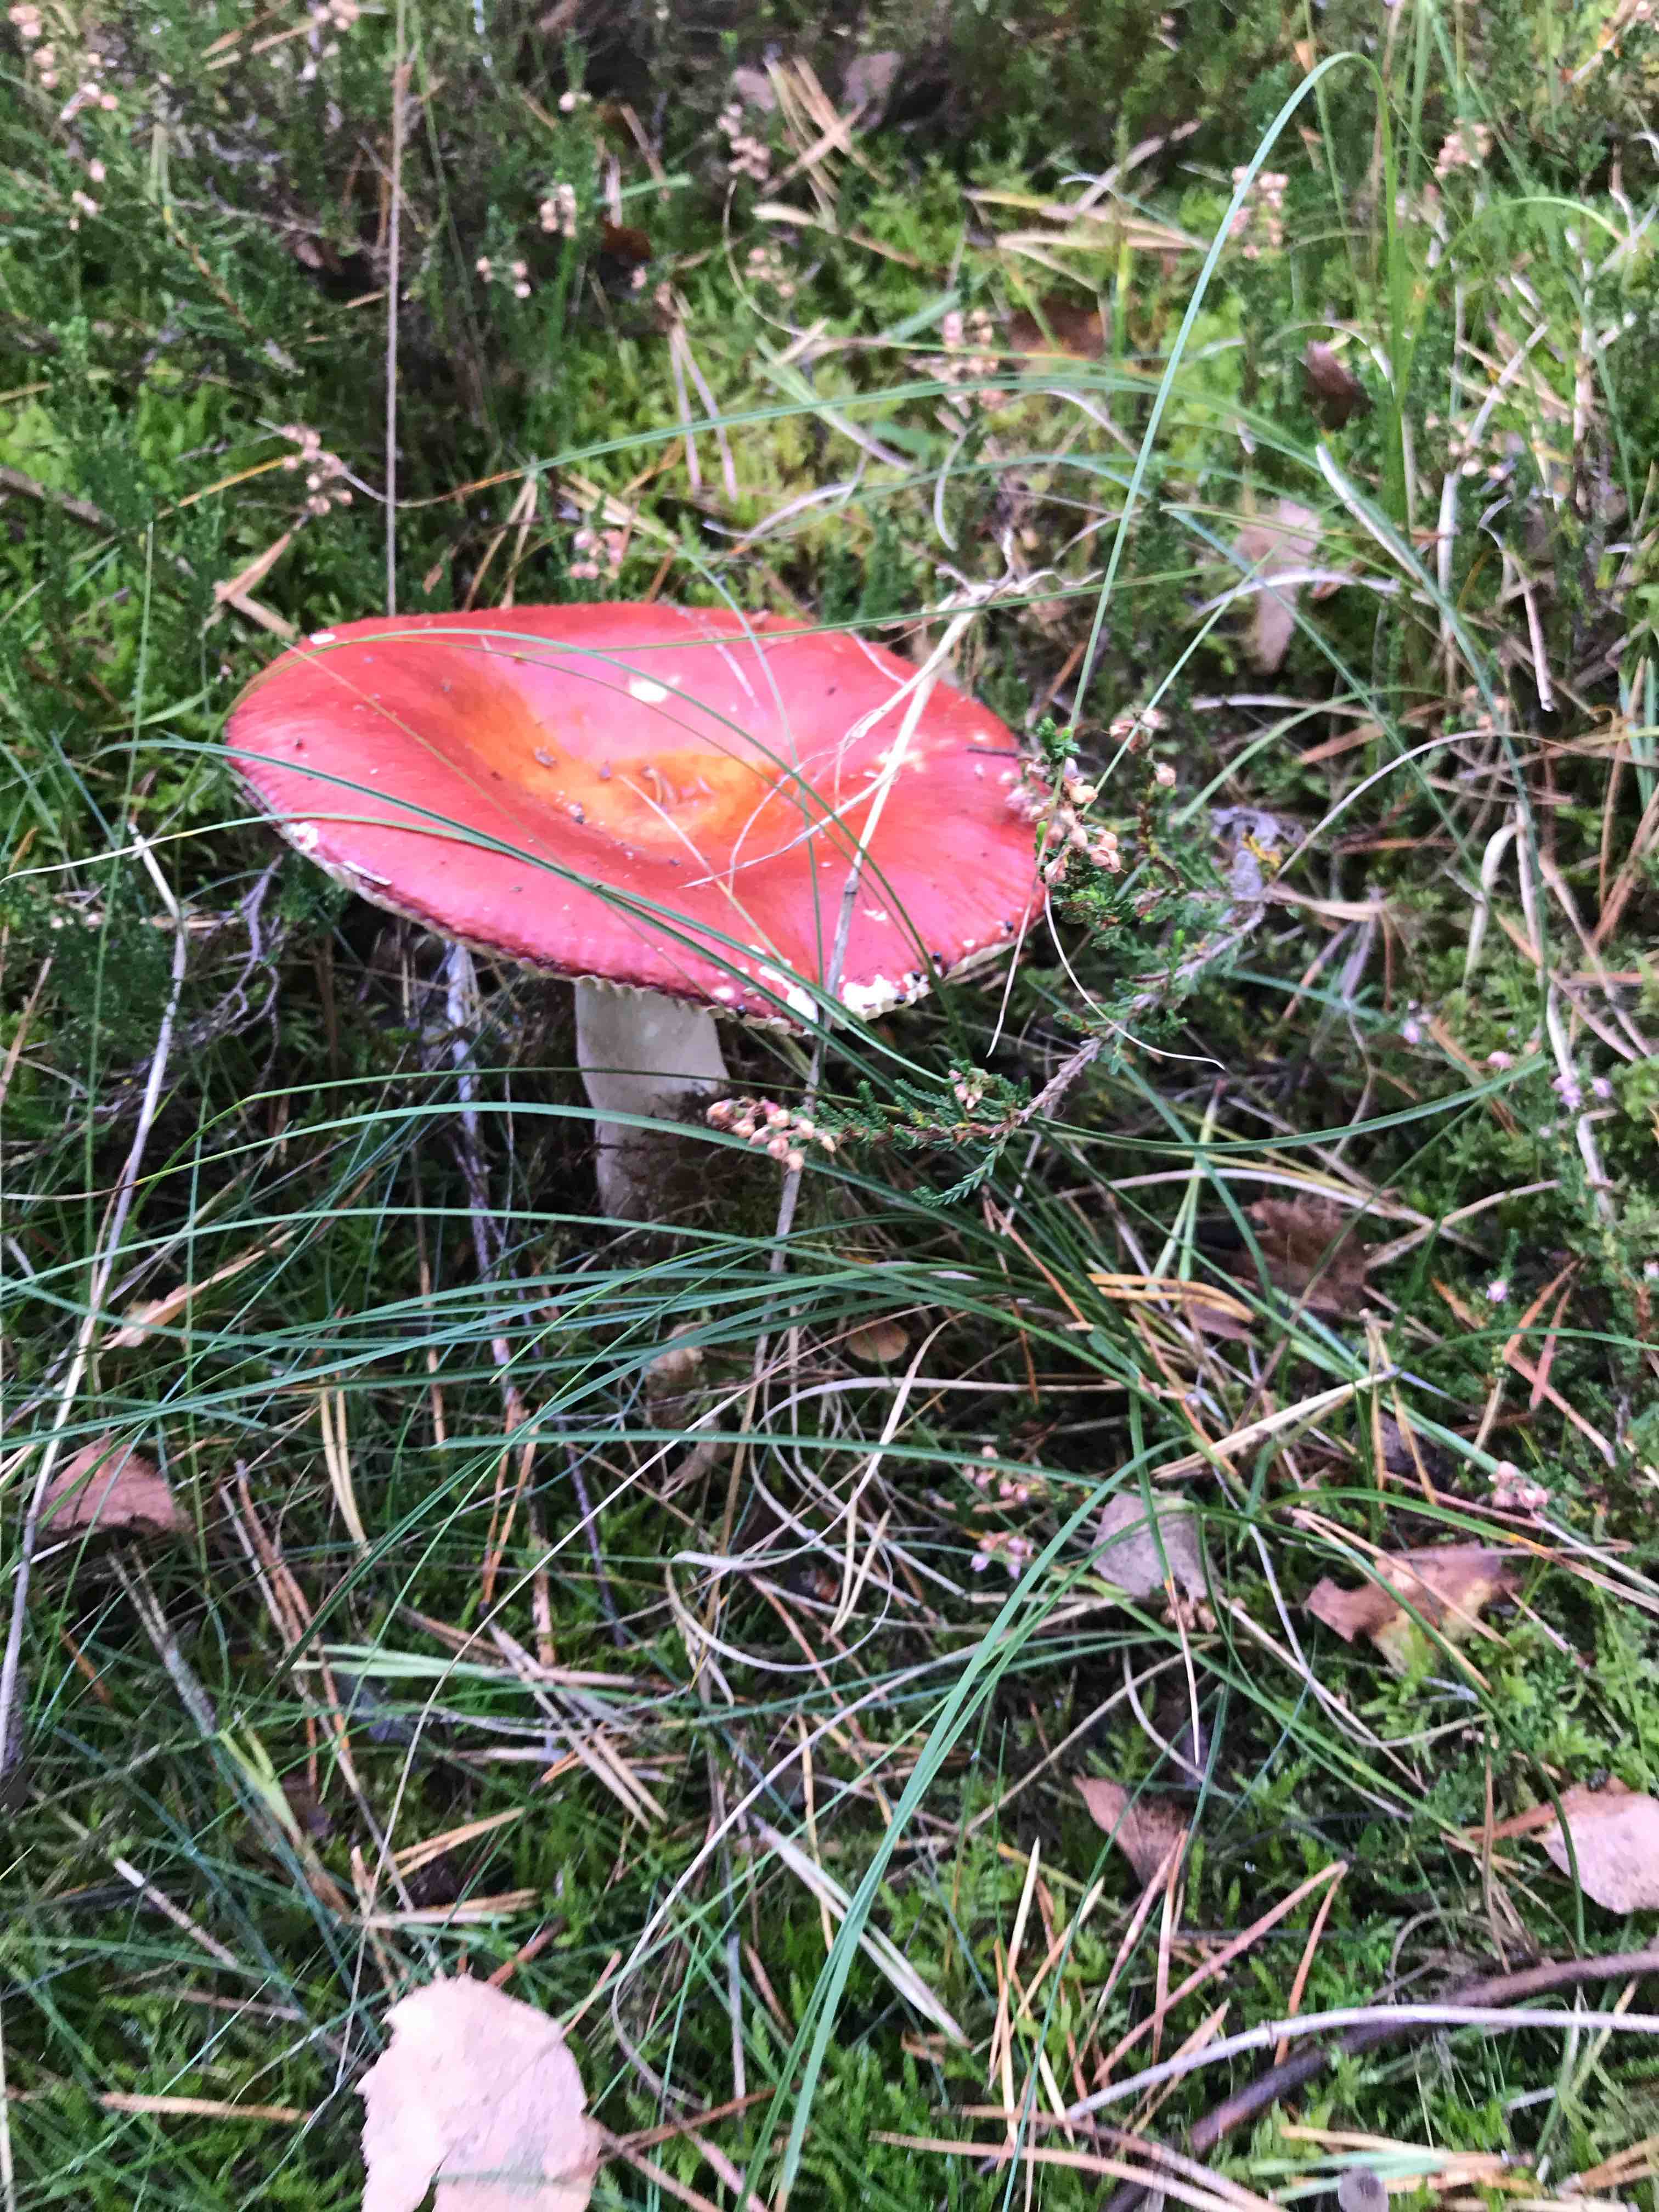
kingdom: Fungi
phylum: Basidiomycota
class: Agaricomycetes
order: Russulales
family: Russulaceae
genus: Russula
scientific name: Russula paludosa
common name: prægtig skørhat
